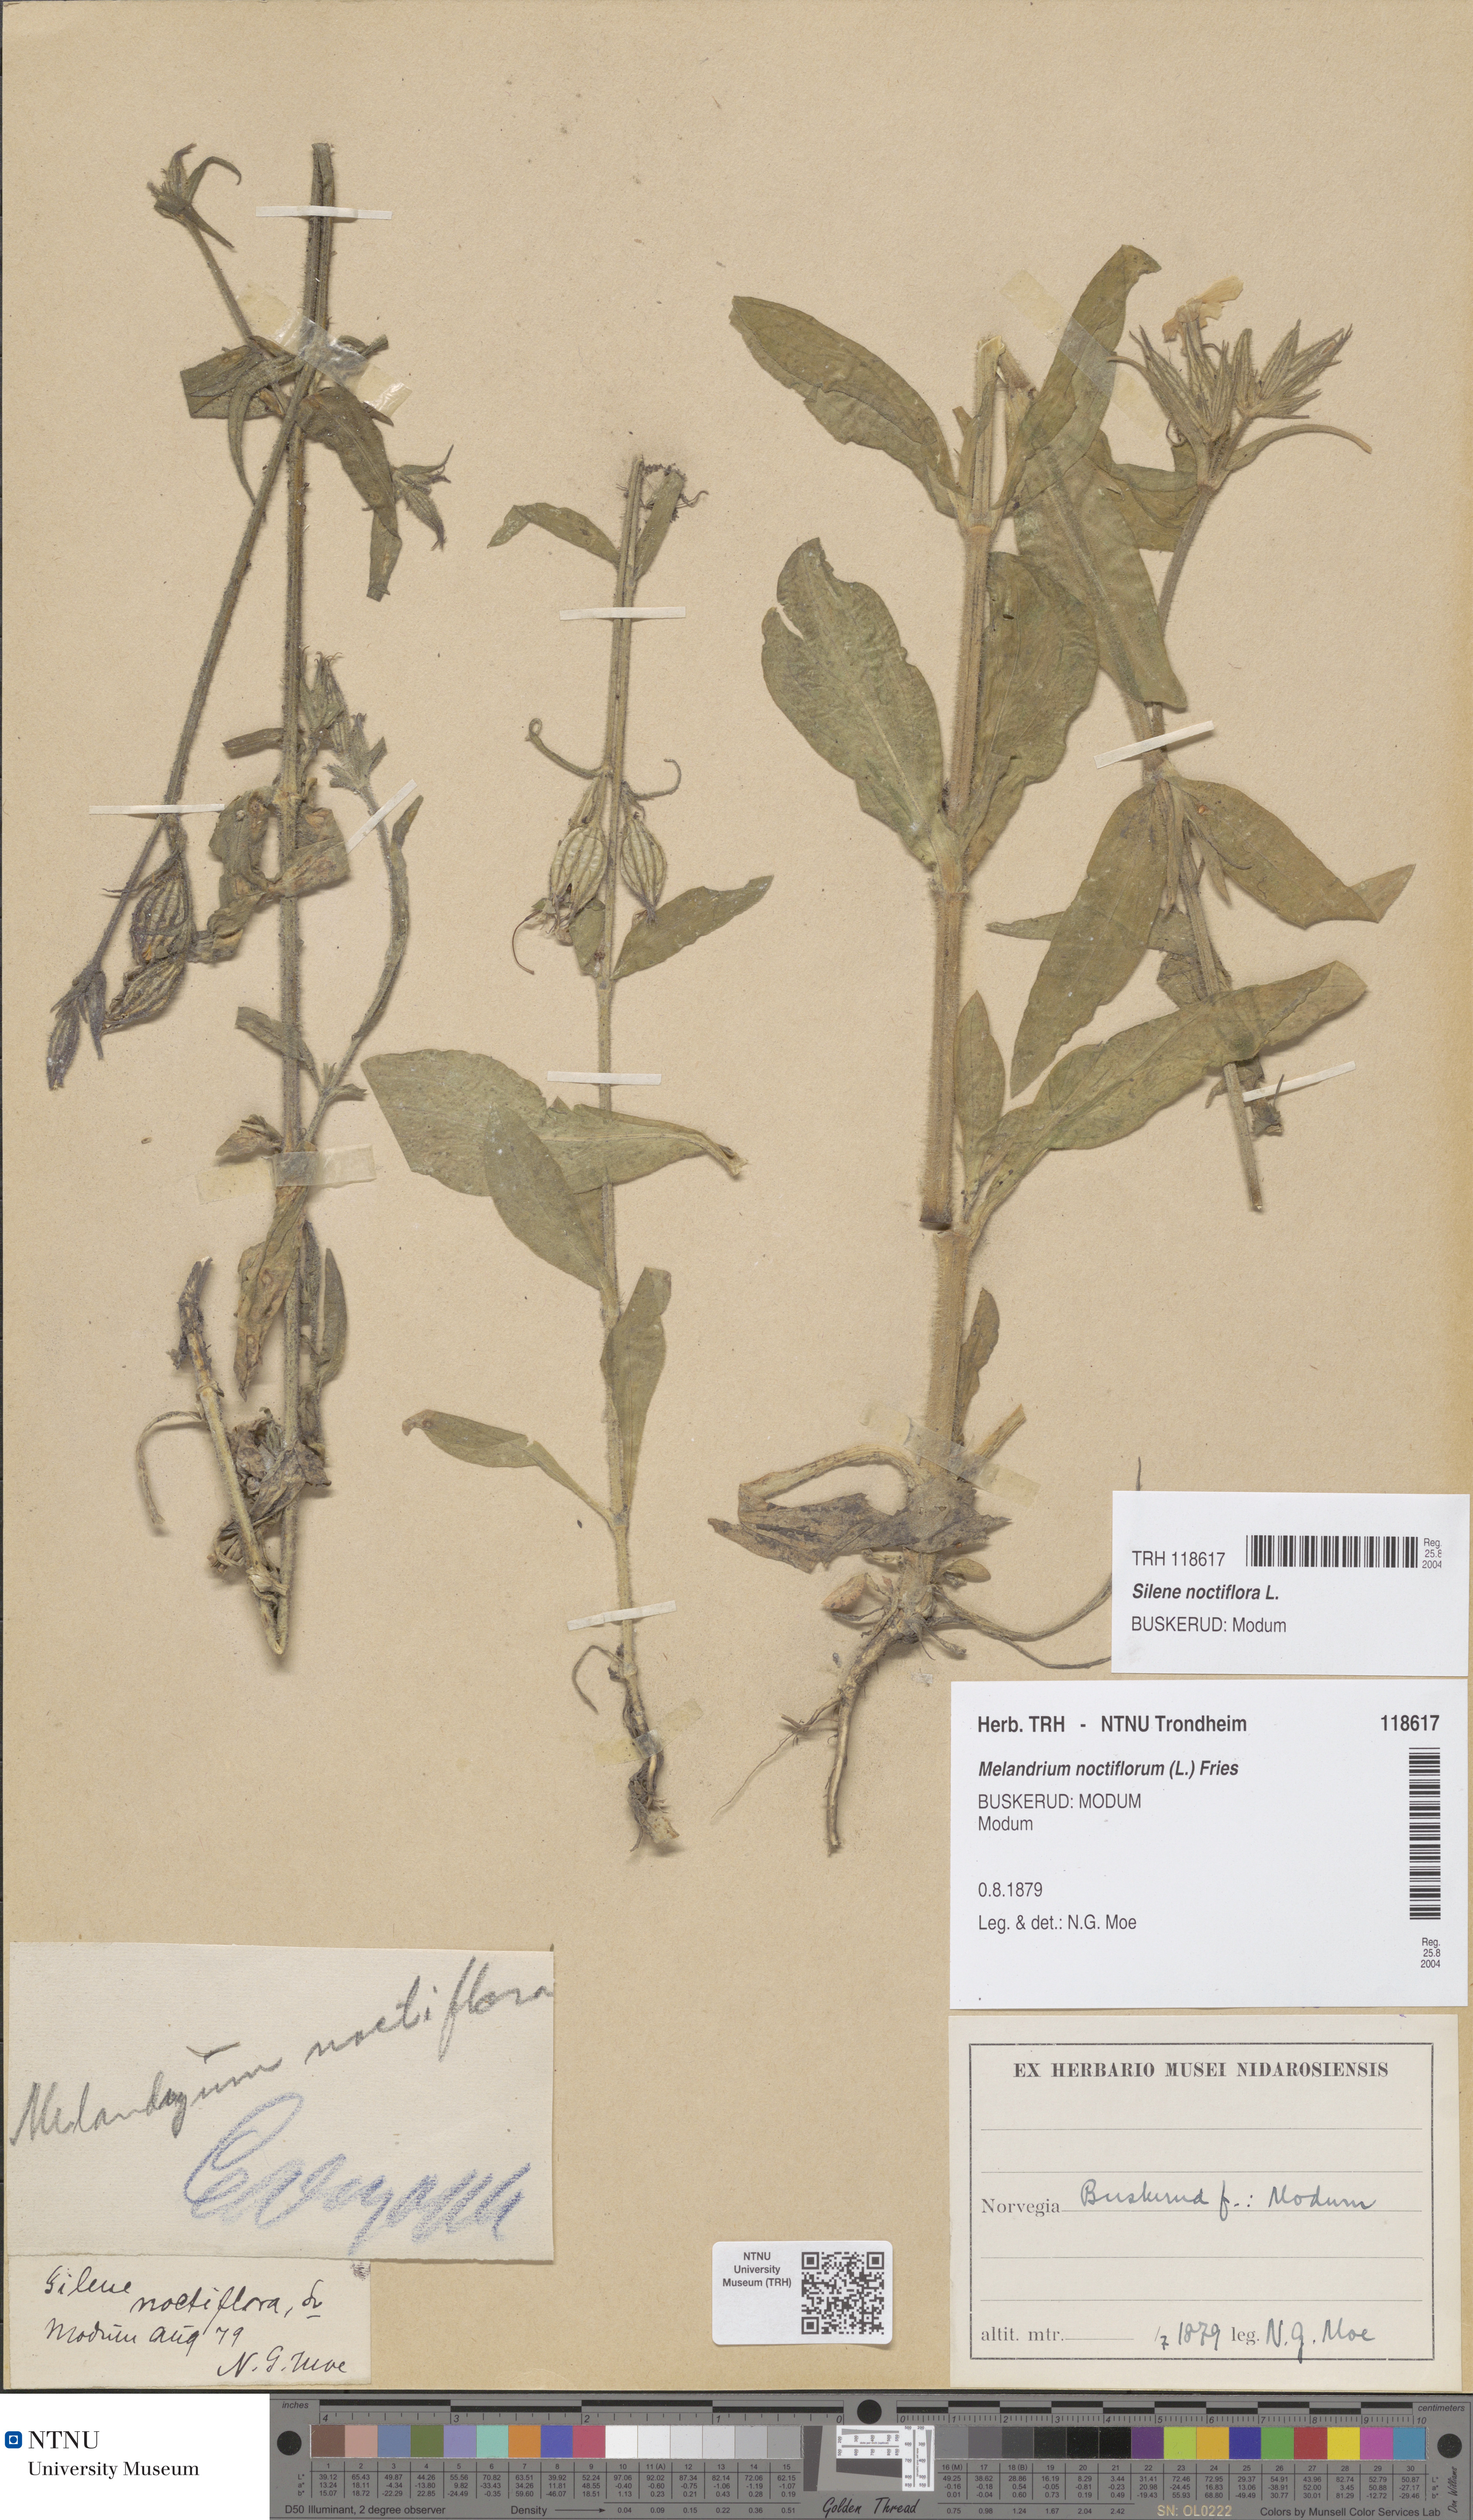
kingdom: Plantae
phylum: Tracheophyta
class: Magnoliopsida
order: Caryophyllales
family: Caryophyllaceae
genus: Silene
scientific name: Silene noctiflora
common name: Night-flowering catchfly
